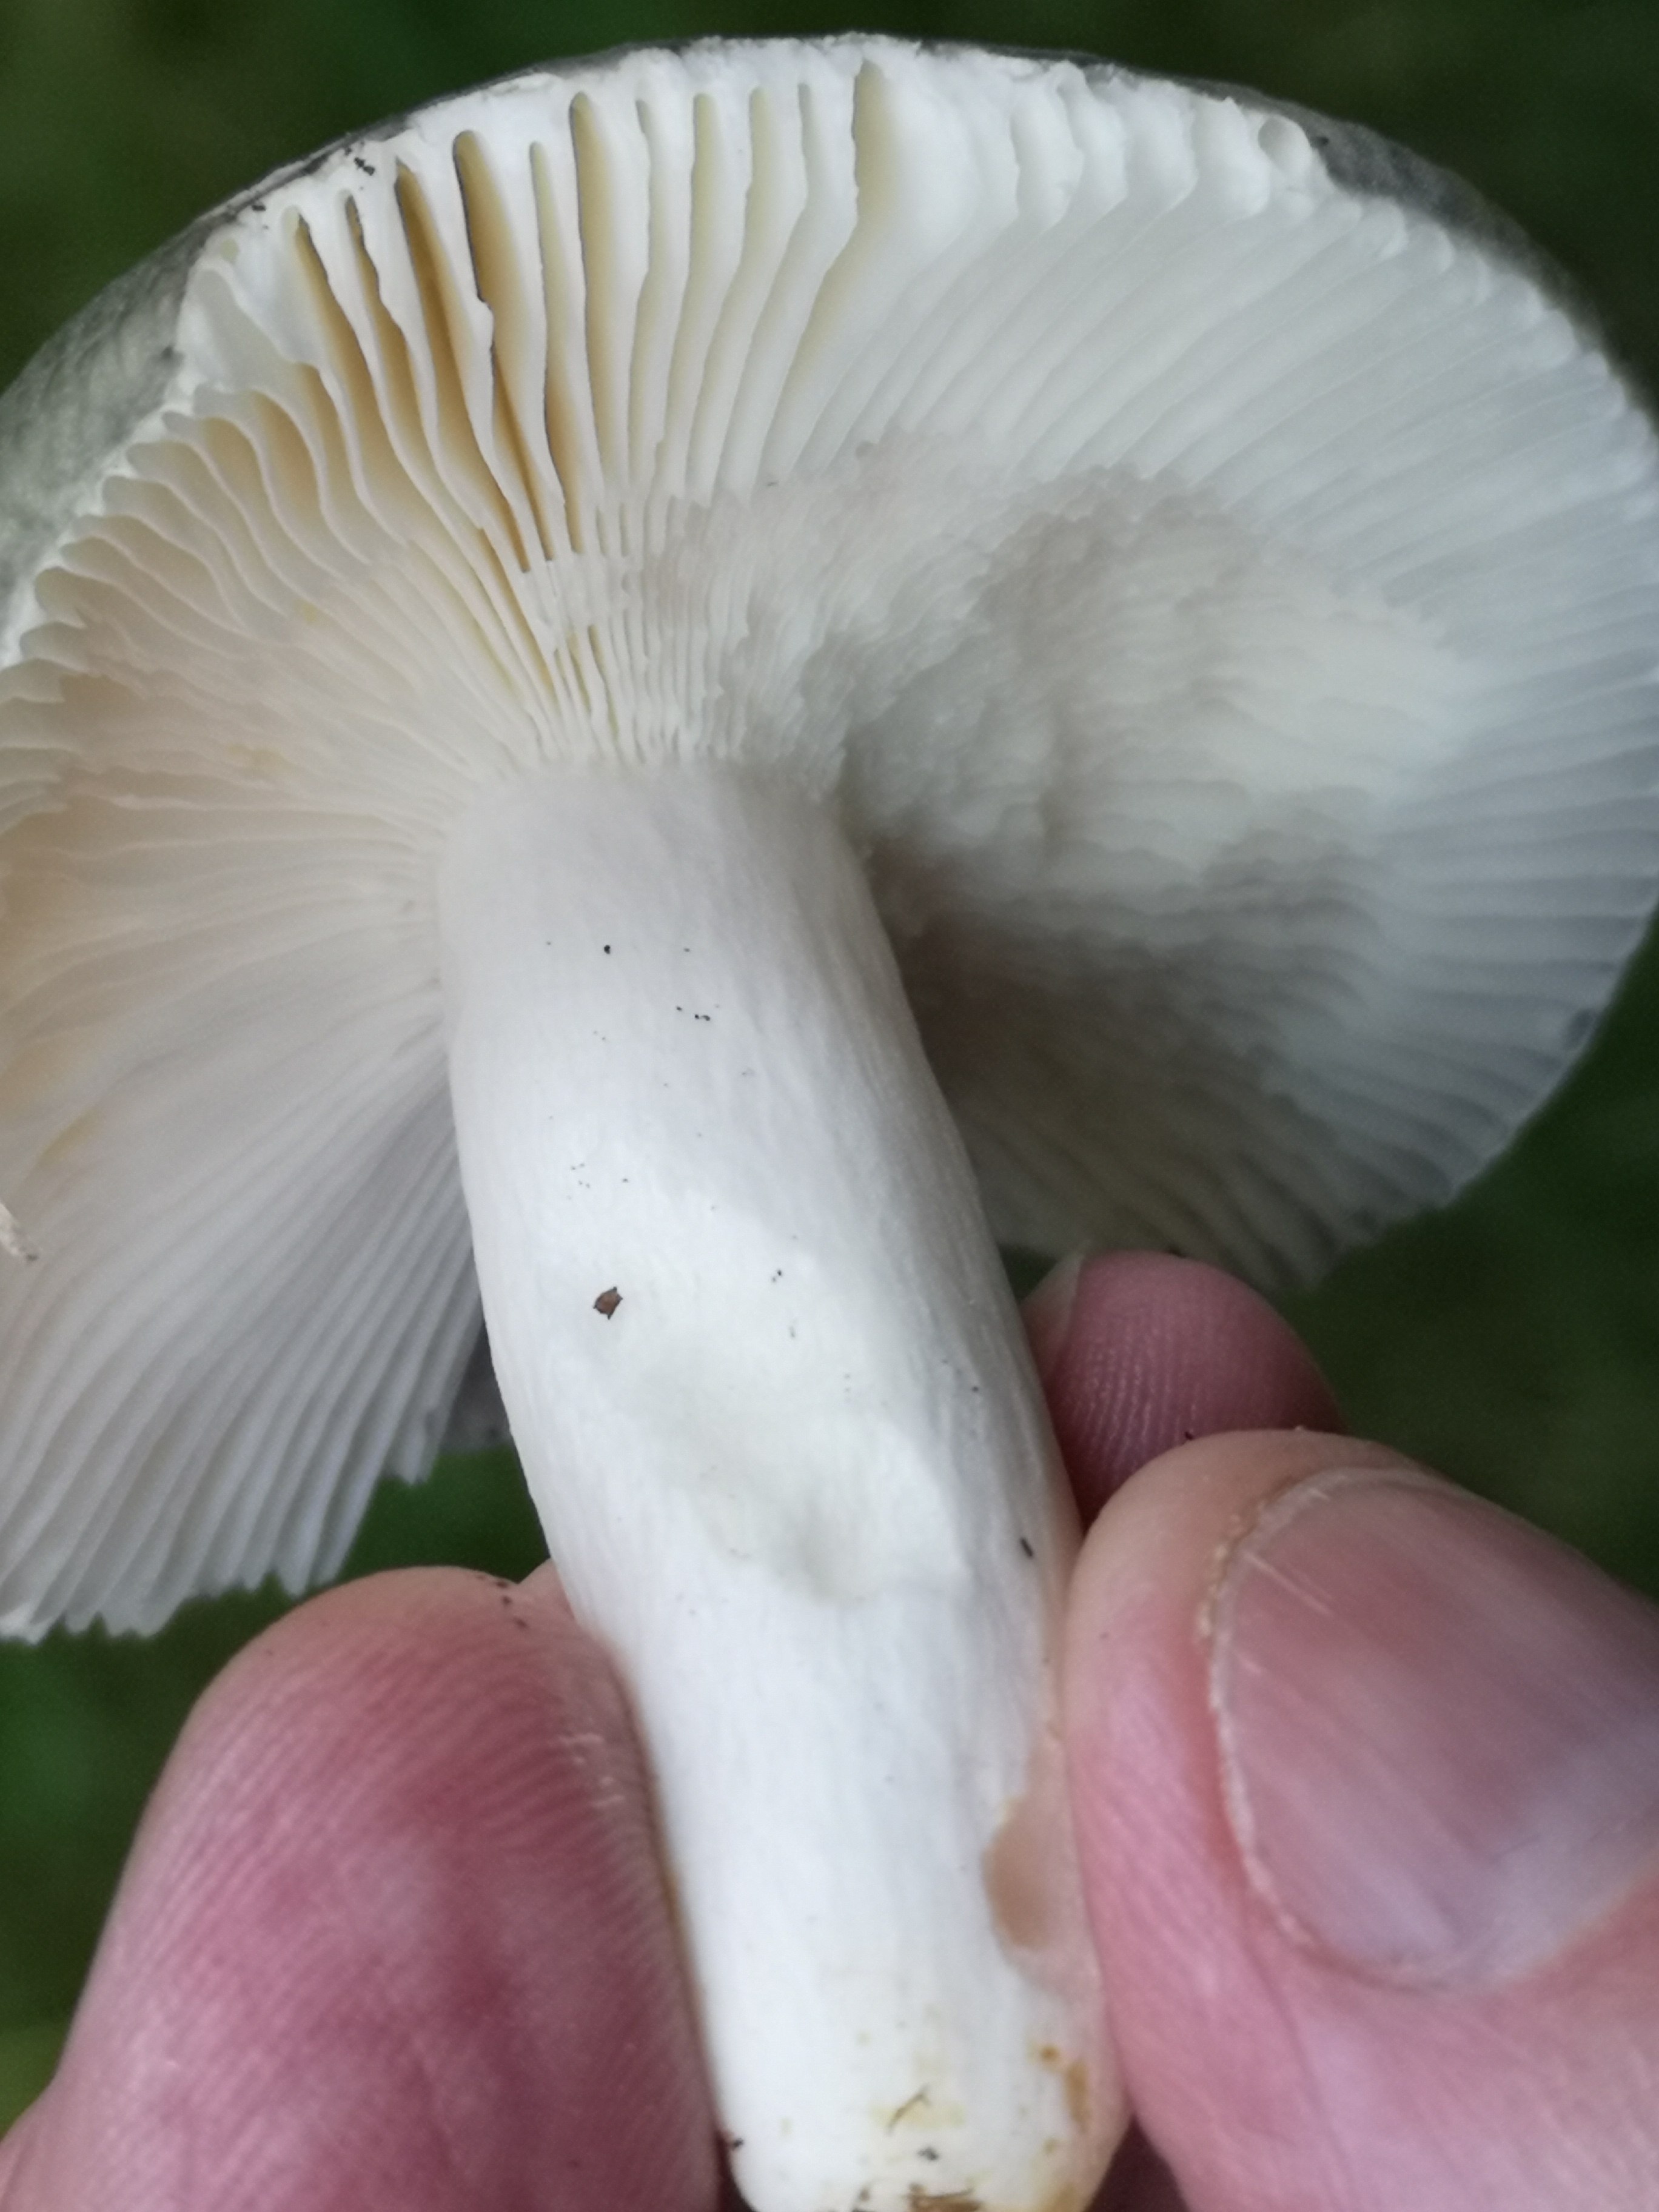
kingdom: Fungi
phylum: Basidiomycota
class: Agaricomycetes
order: Russulales
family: Russulaceae
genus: Russula
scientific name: Russula cyanoxantha
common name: broget skørhat
